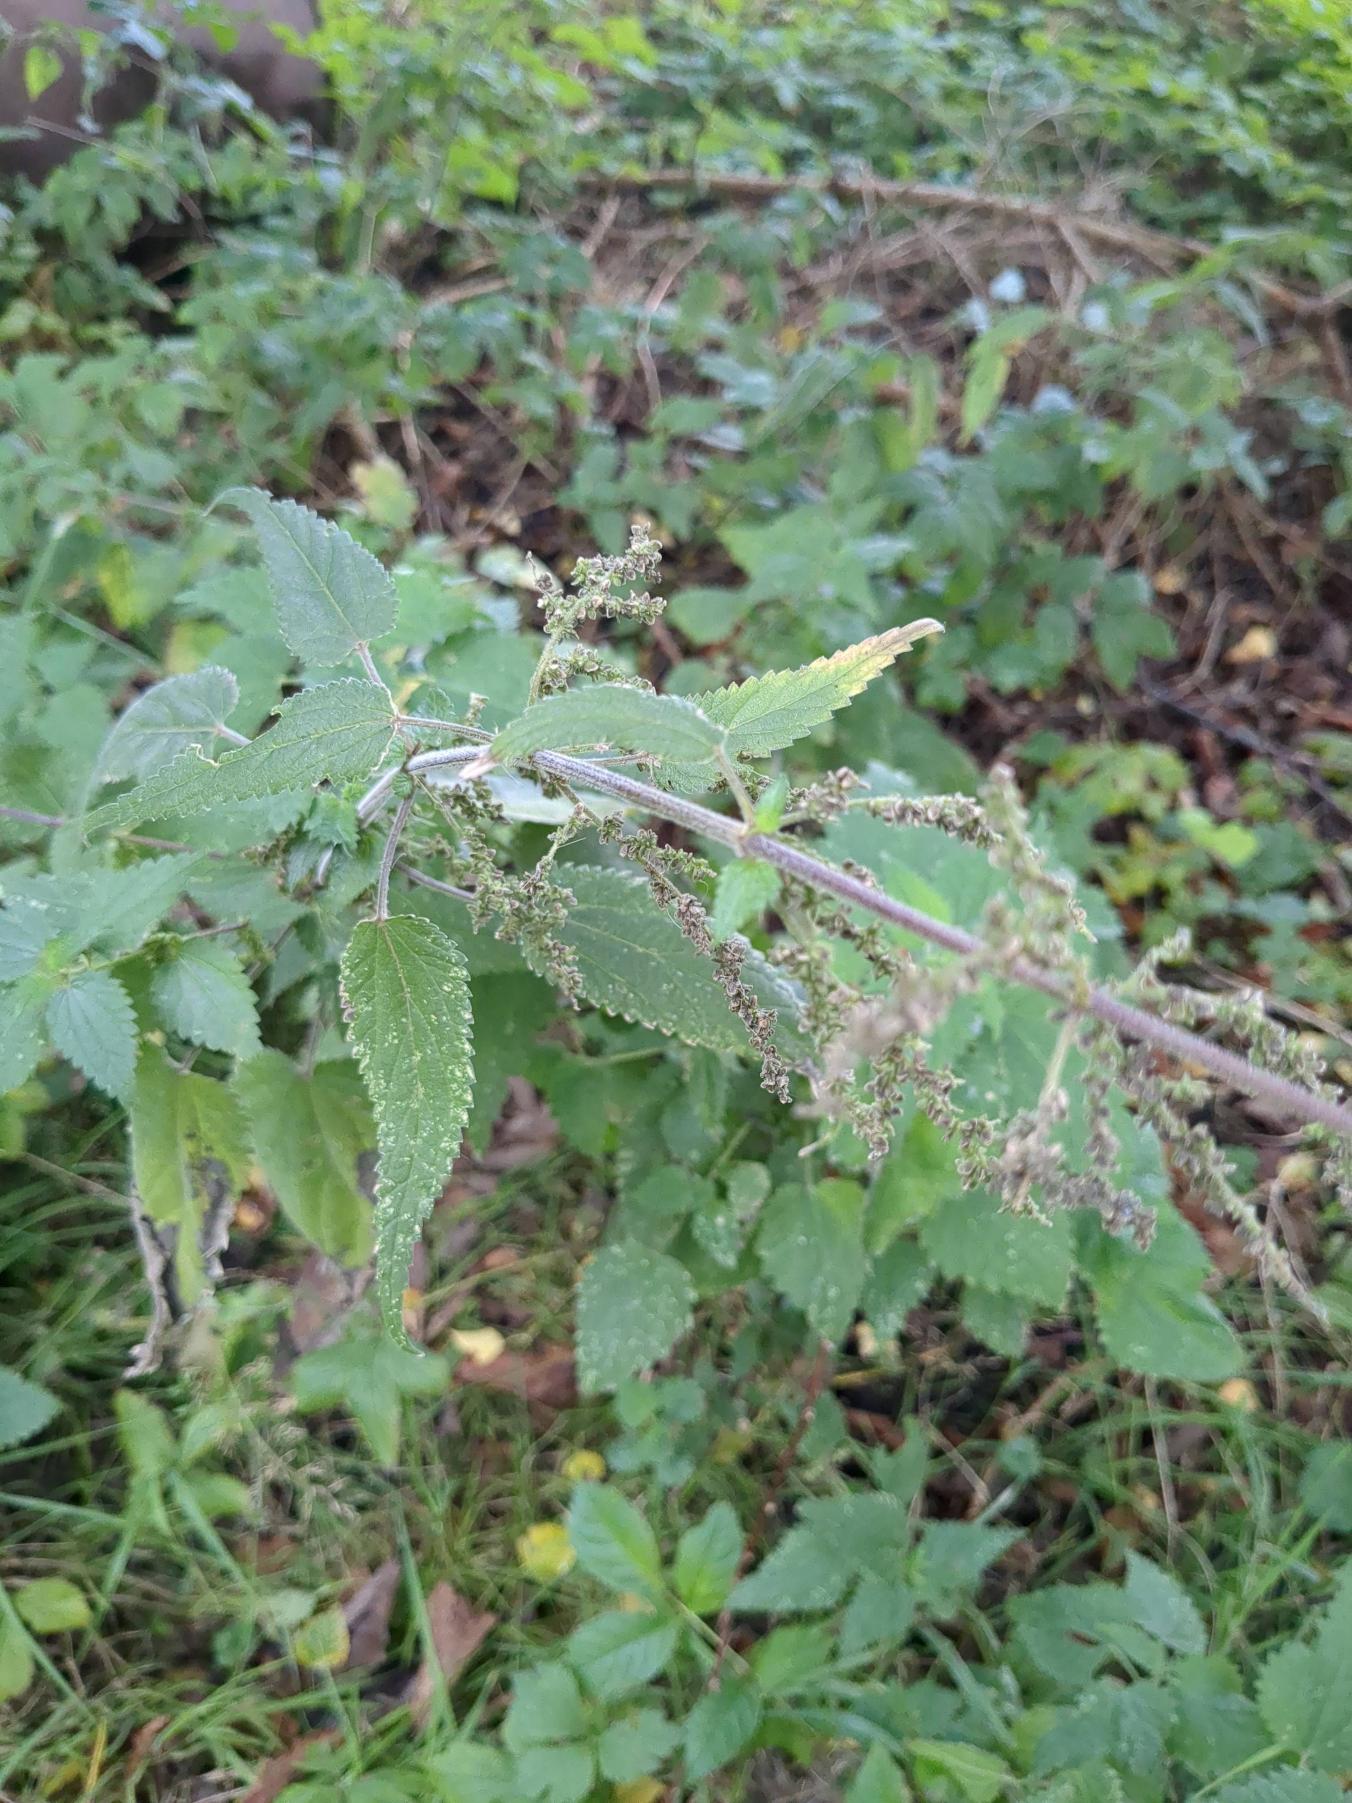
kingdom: Plantae
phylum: Tracheophyta
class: Magnoliopsida
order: Rosales
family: Urticaceae
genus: Urtica
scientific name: Urtica dioica
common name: Stor nælde
